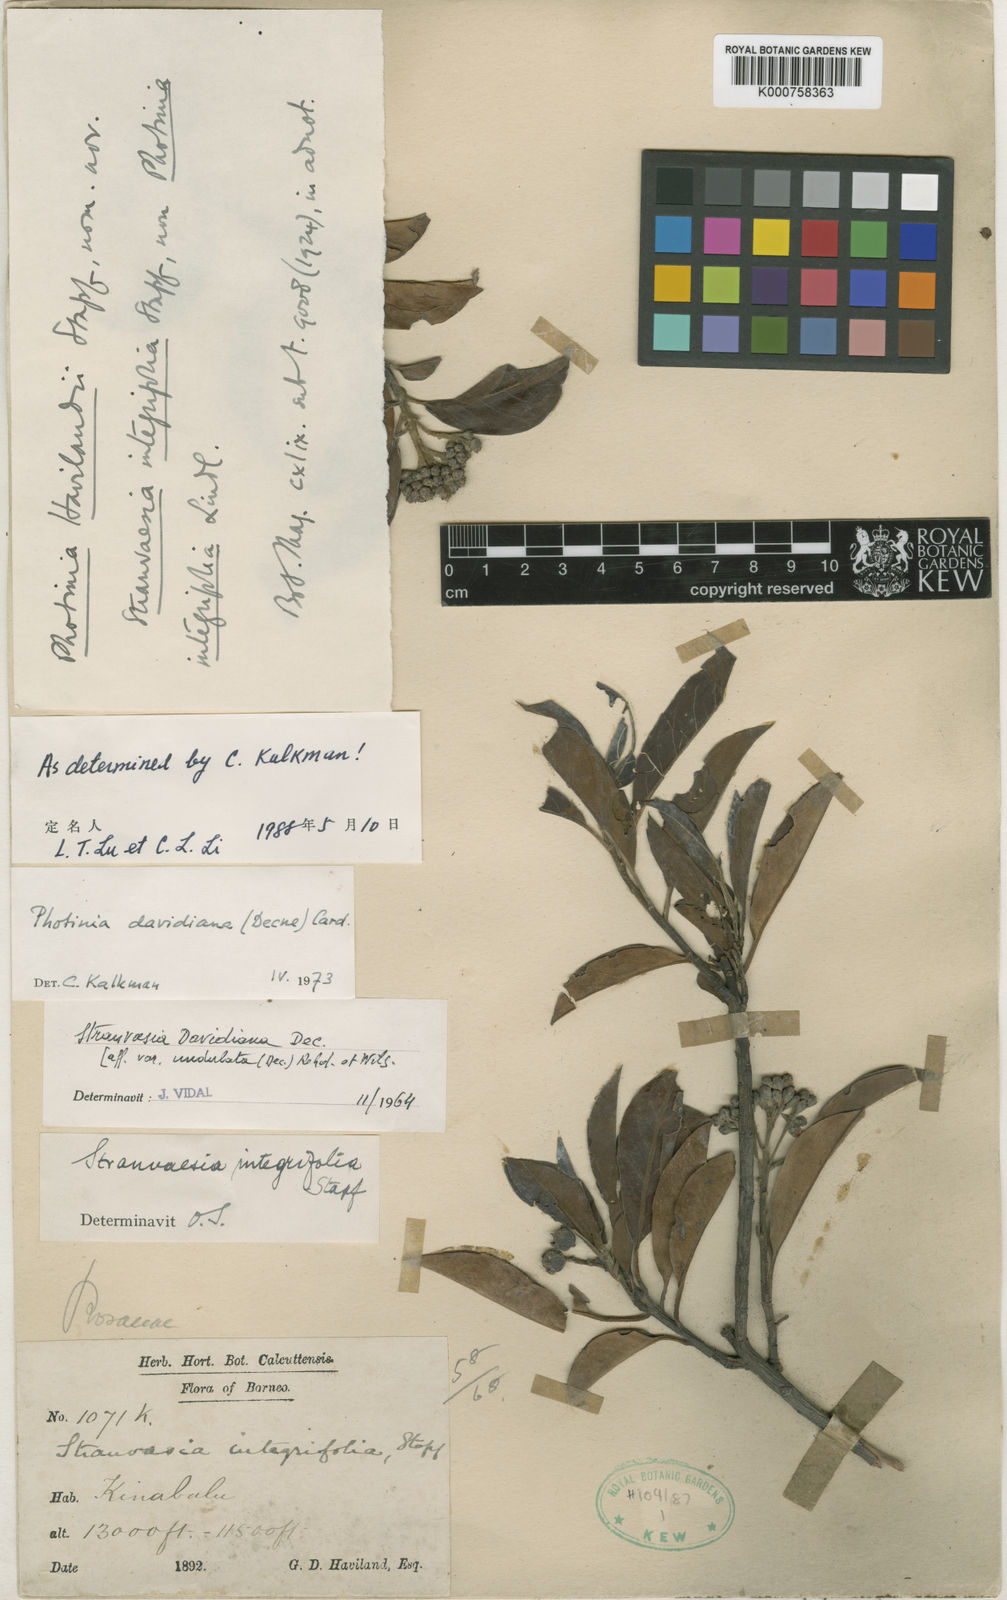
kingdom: Plantae
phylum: Tracheophyta
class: Magnoliopsida
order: Rosales
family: Rosaceae
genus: Stranvaesia
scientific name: Stranvaesia davidiana
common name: Chinese photinia
